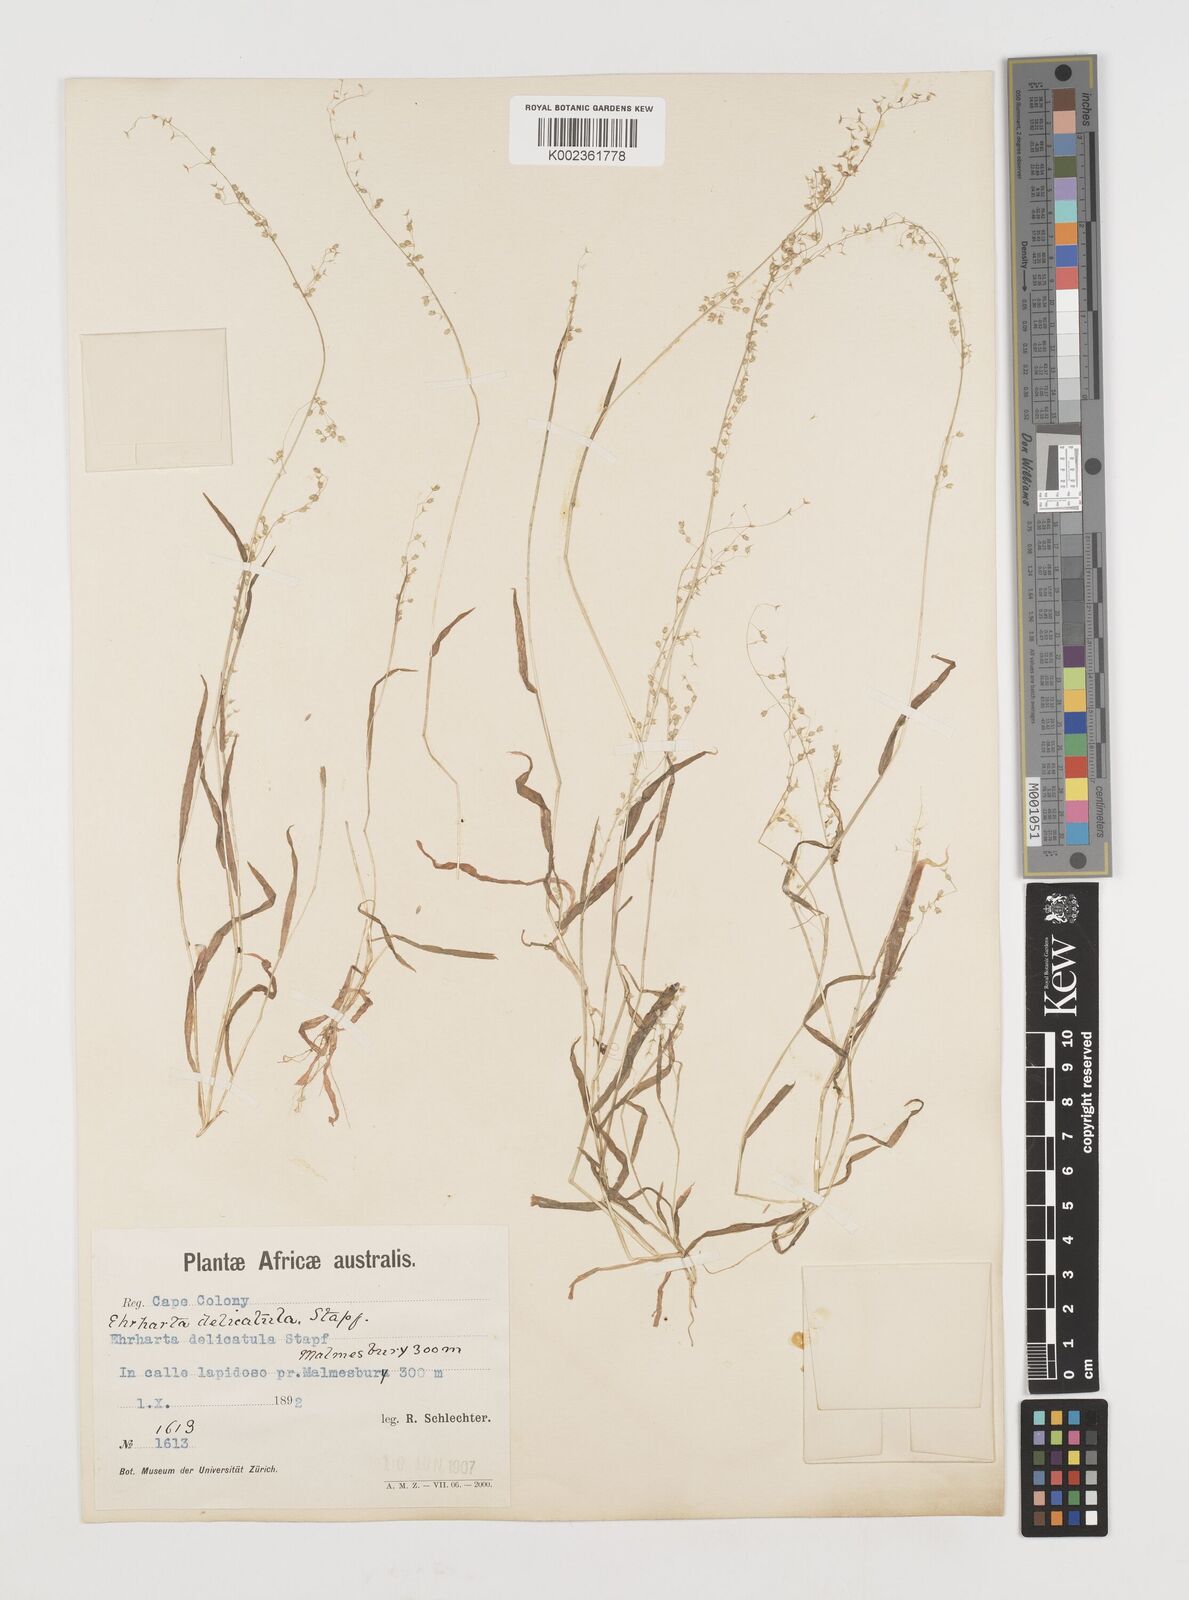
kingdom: Plantae
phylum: Tracheophyta
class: Liliopsida
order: Poales
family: Poaceae
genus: Ehrharta
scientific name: Ehrharta delicatula
